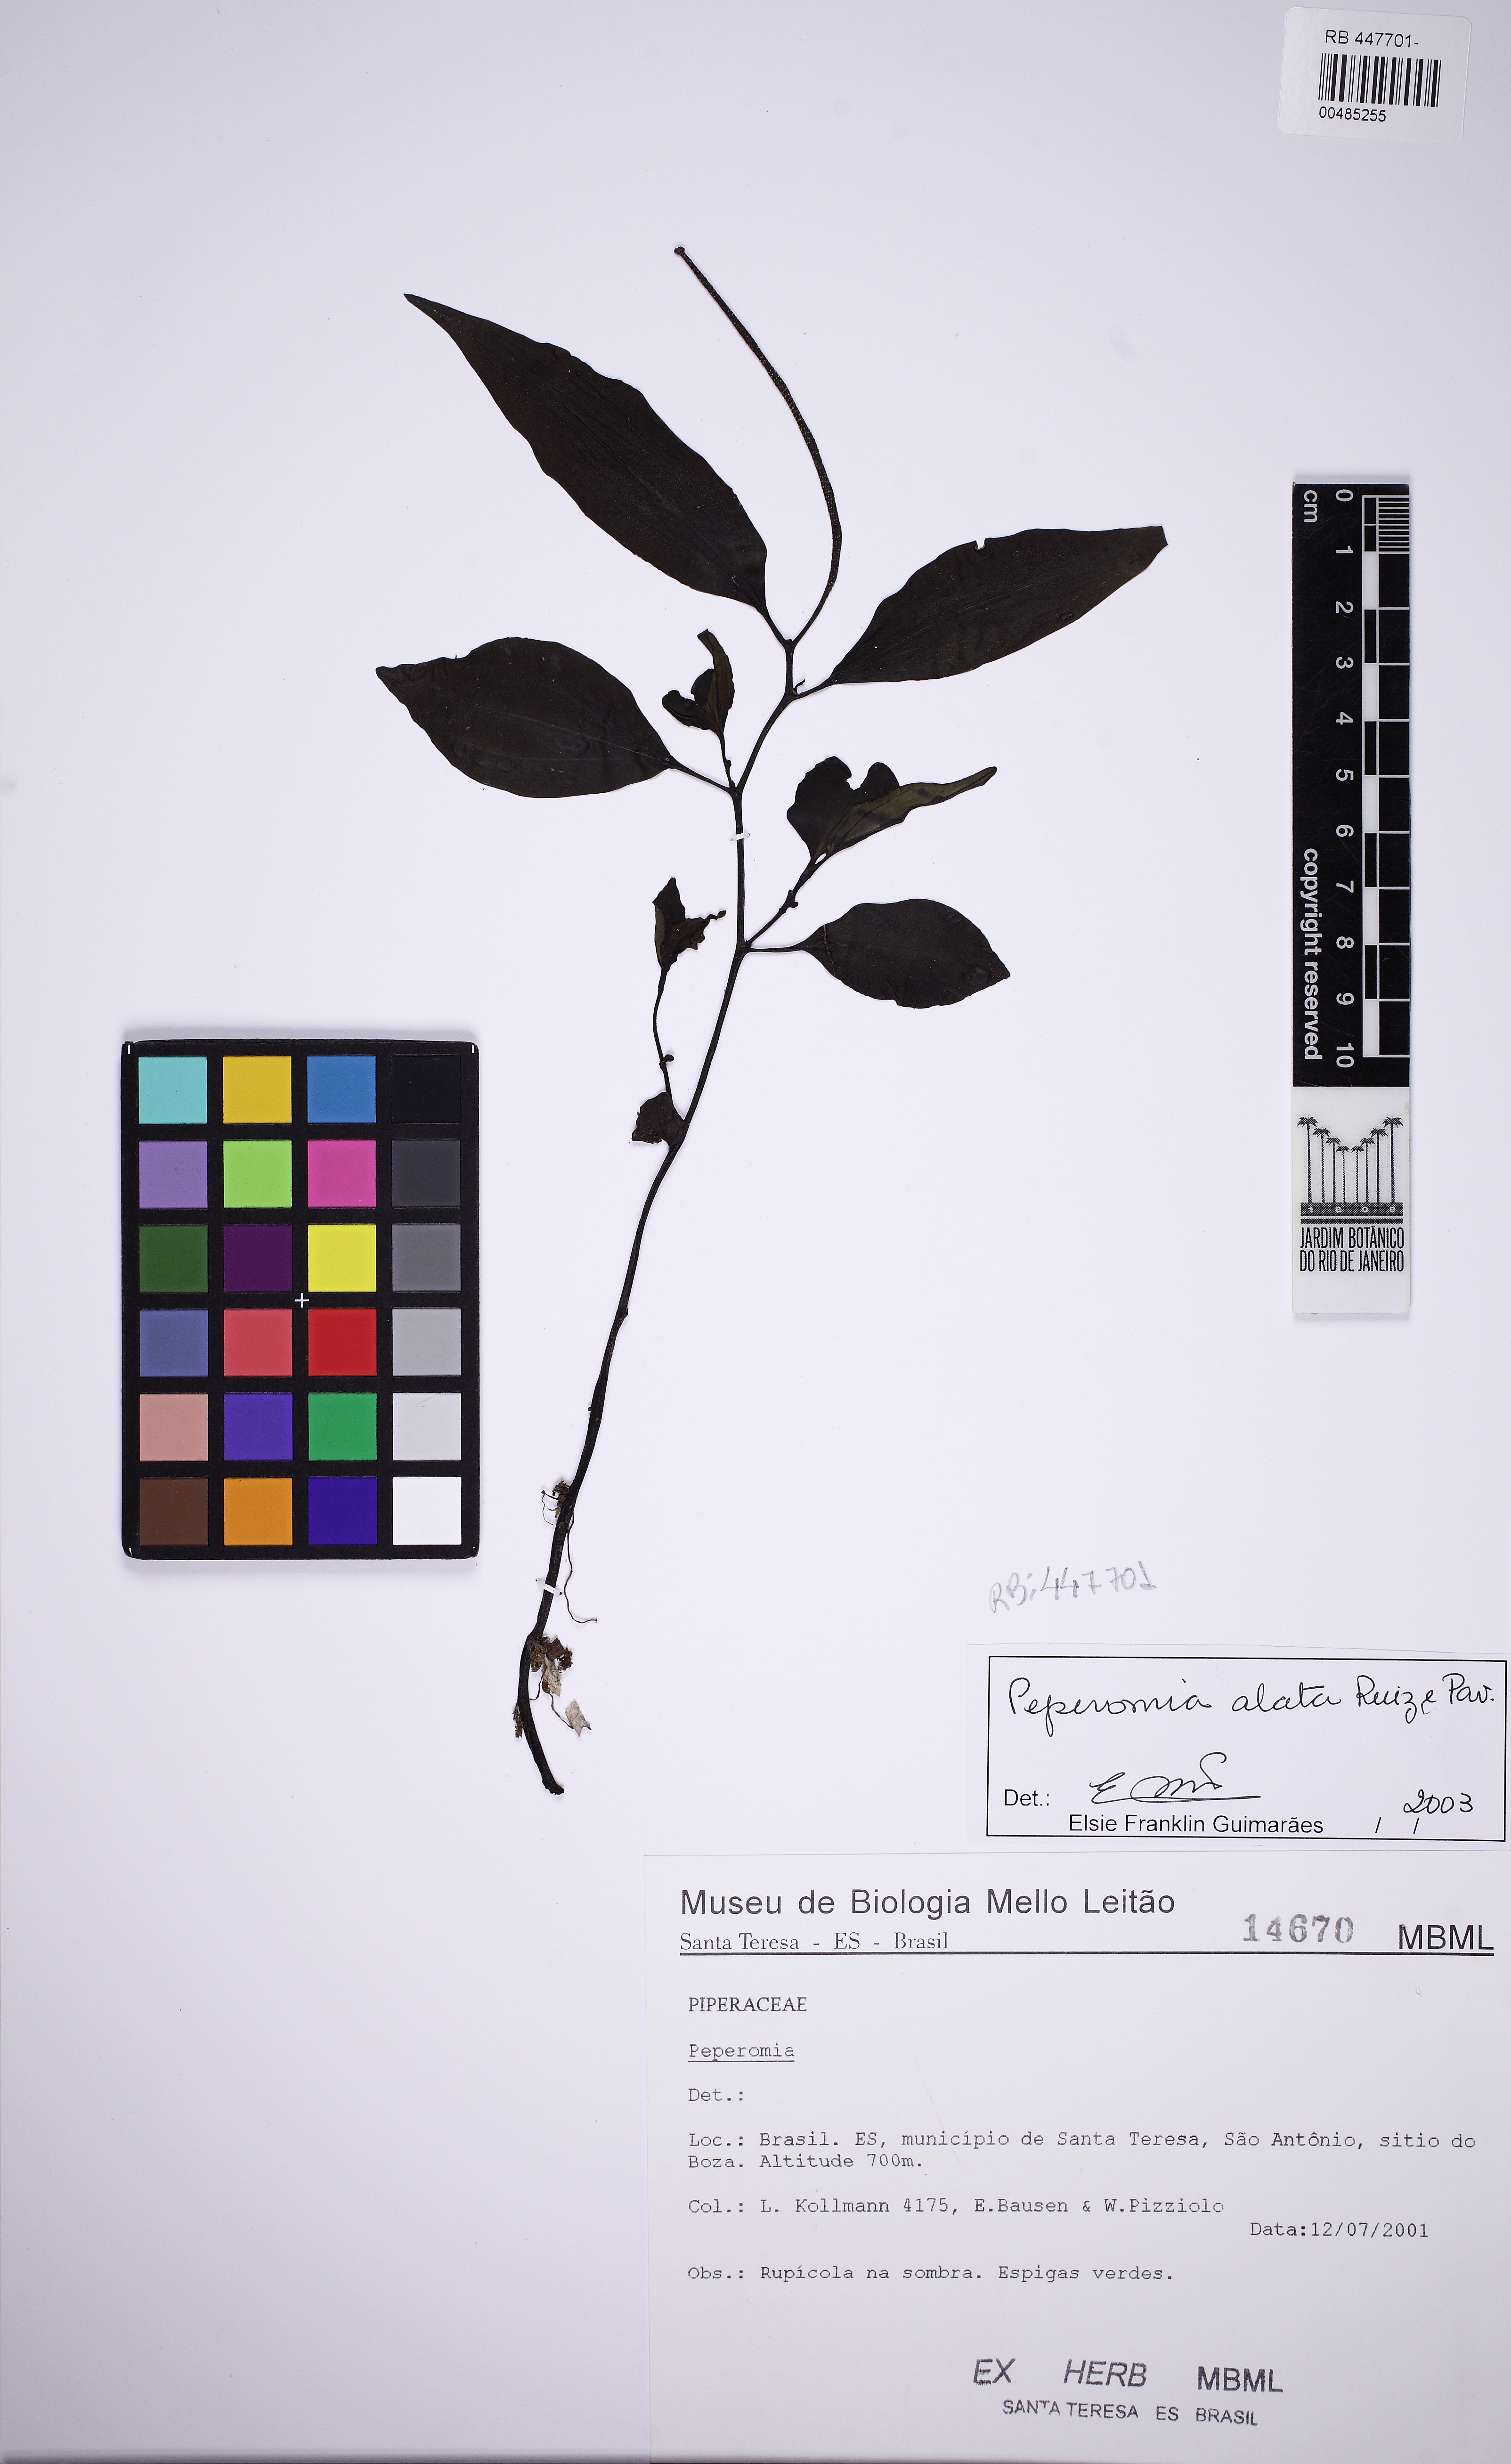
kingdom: Plantae
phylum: Tracheophyta
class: Magnoliopsida
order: Piperales
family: Piperaceae
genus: Peperomia
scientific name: Peperomia alata
